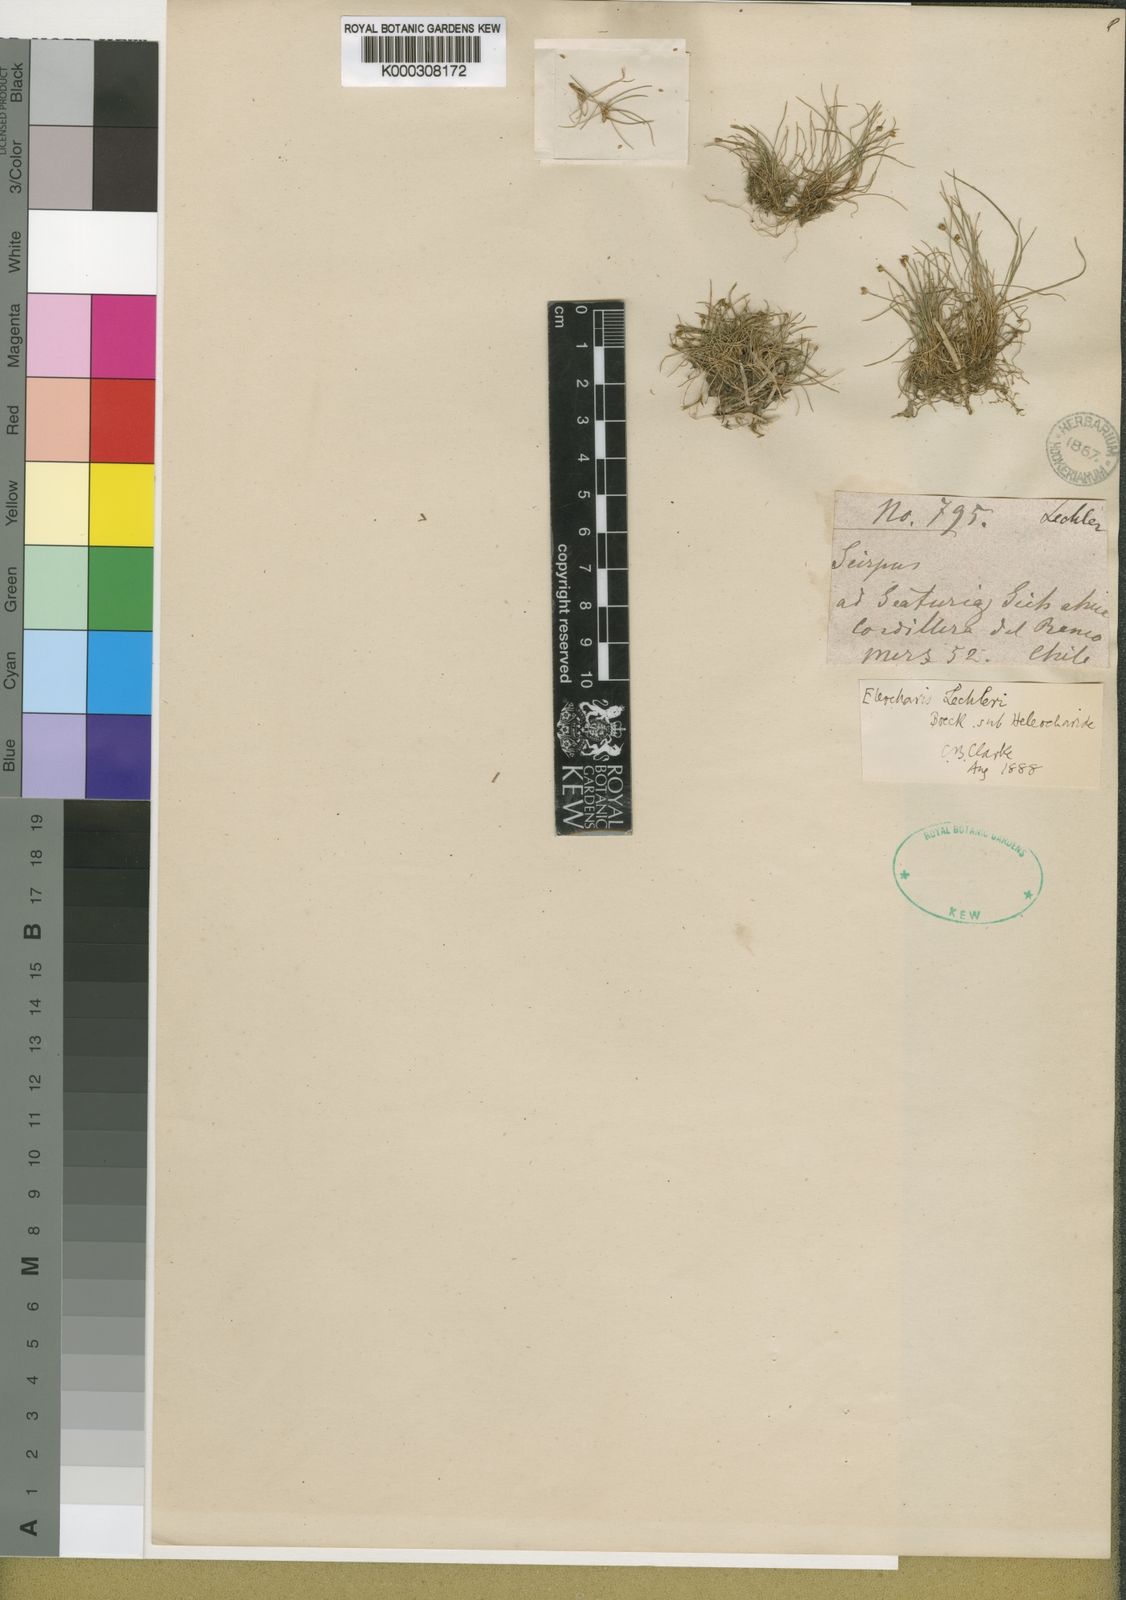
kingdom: Plantae
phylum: Tracheophyta
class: Liliopsida
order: Poales
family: Cyperaceae
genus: Eleocharis
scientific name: Eleocharis lechleri
